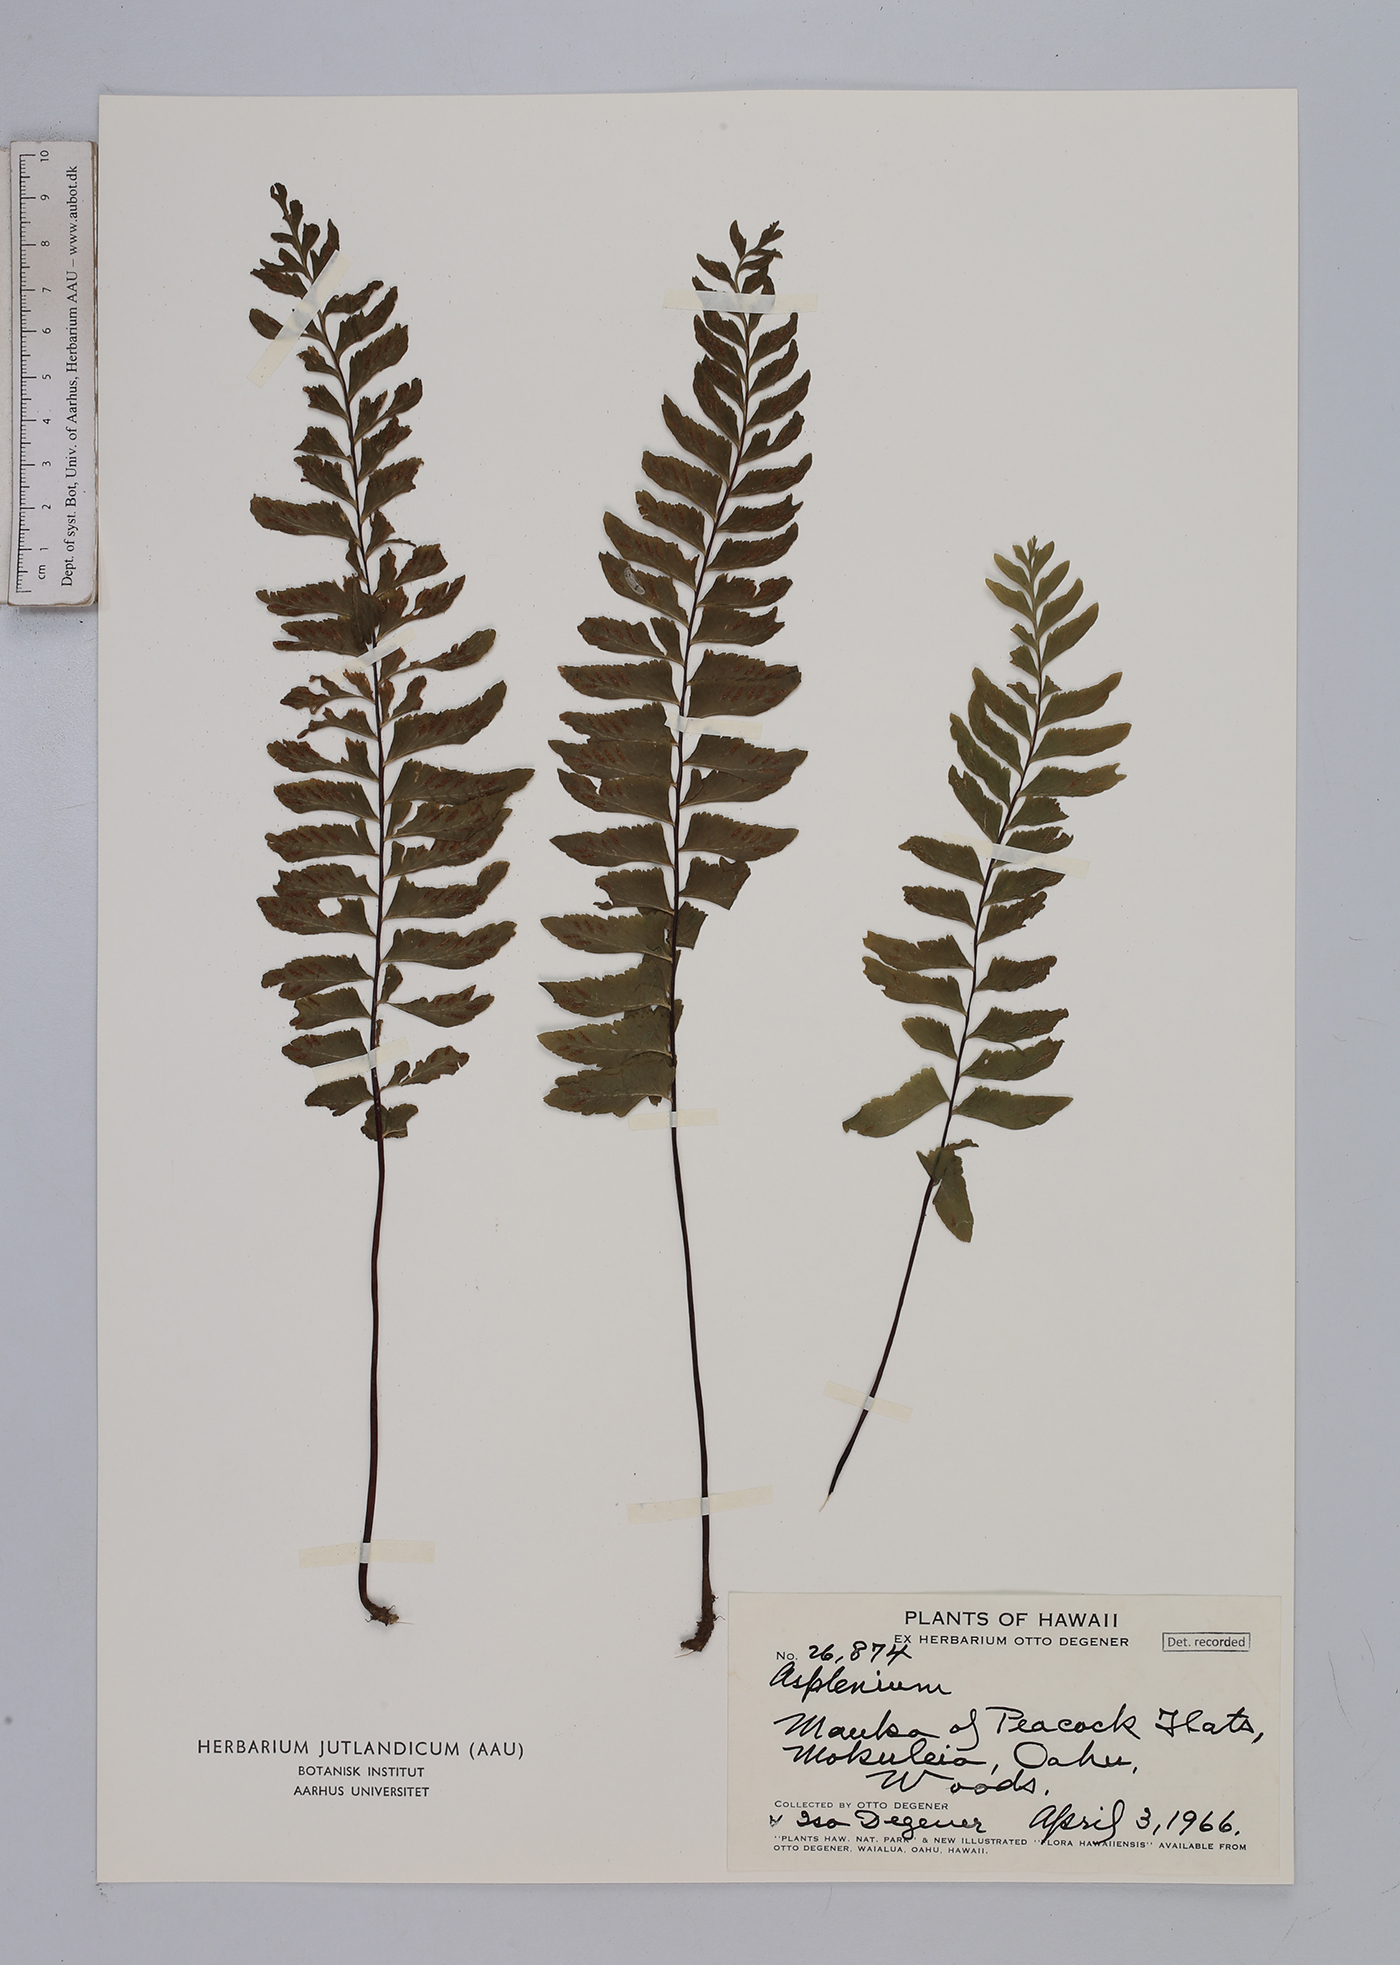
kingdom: Plantae
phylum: Tracheophyta
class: Polypodiopsida
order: Polypodiales
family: Aspleniaceae
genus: Asplenium
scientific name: Asplenium
